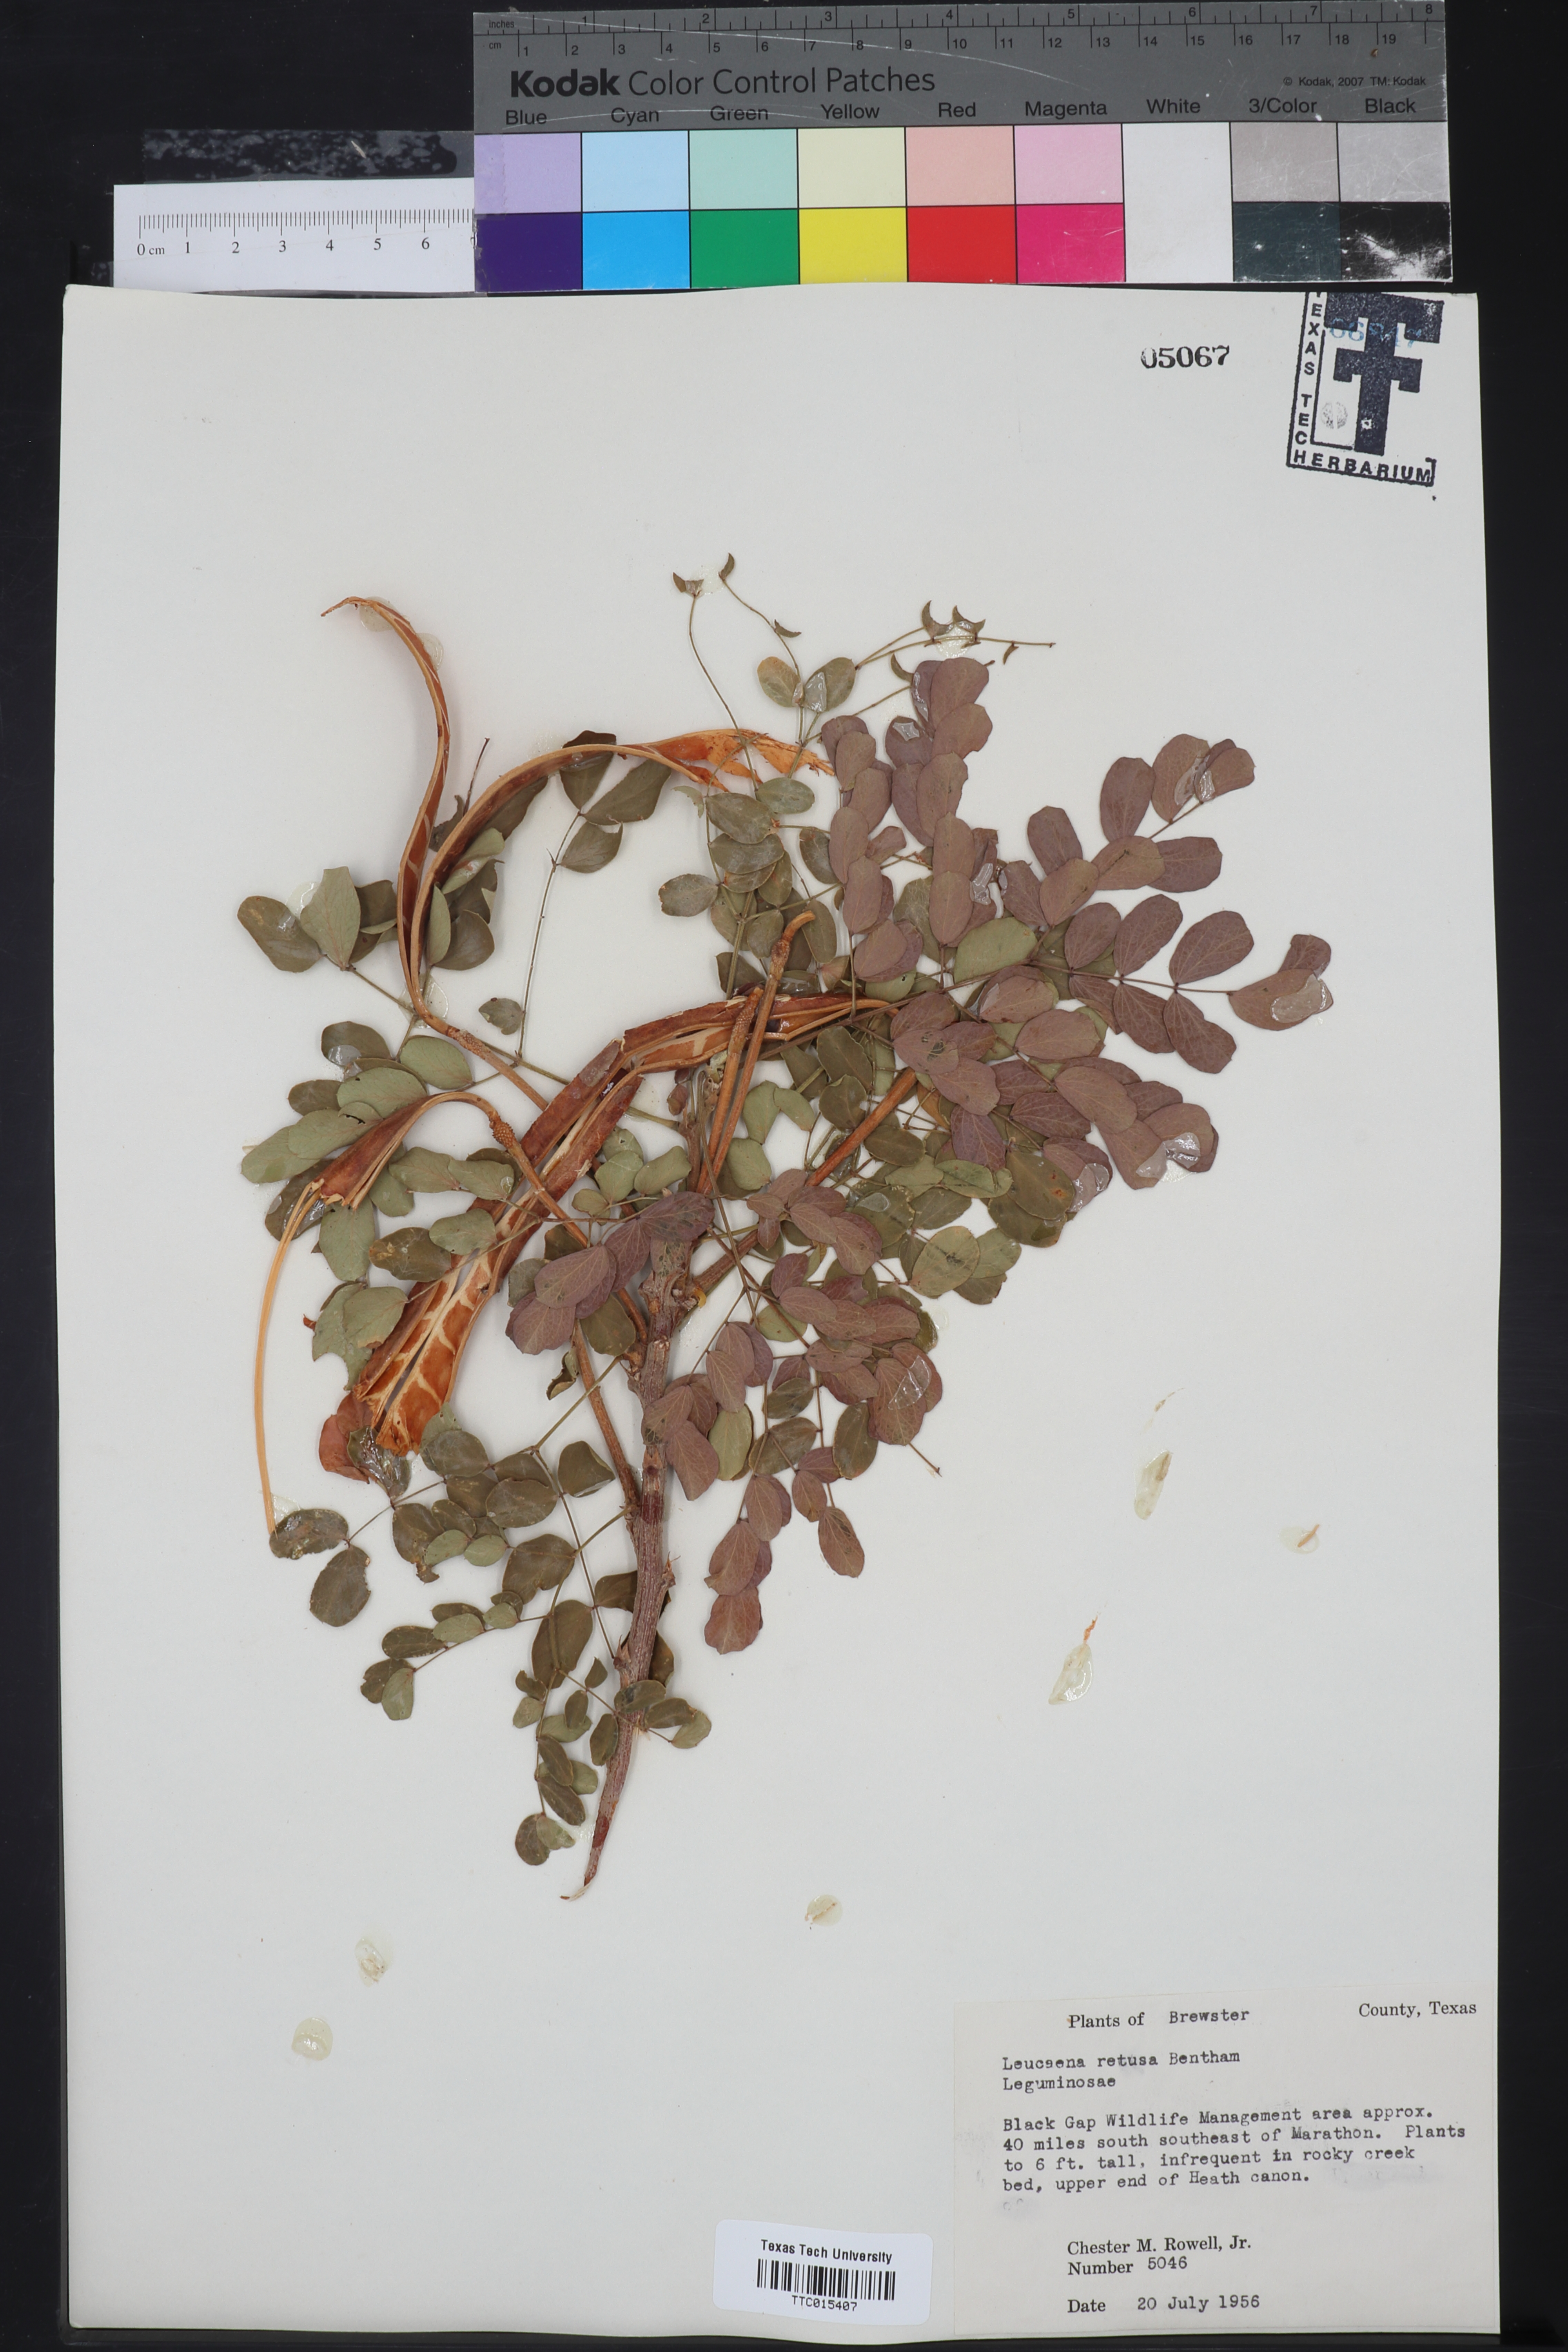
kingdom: Plantae
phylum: Tracheophyta
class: Magnoliopsida
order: Fabales
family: Fabaceae
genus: Leucaena
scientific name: Leucaena retusa
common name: Littleleaf leadtree
